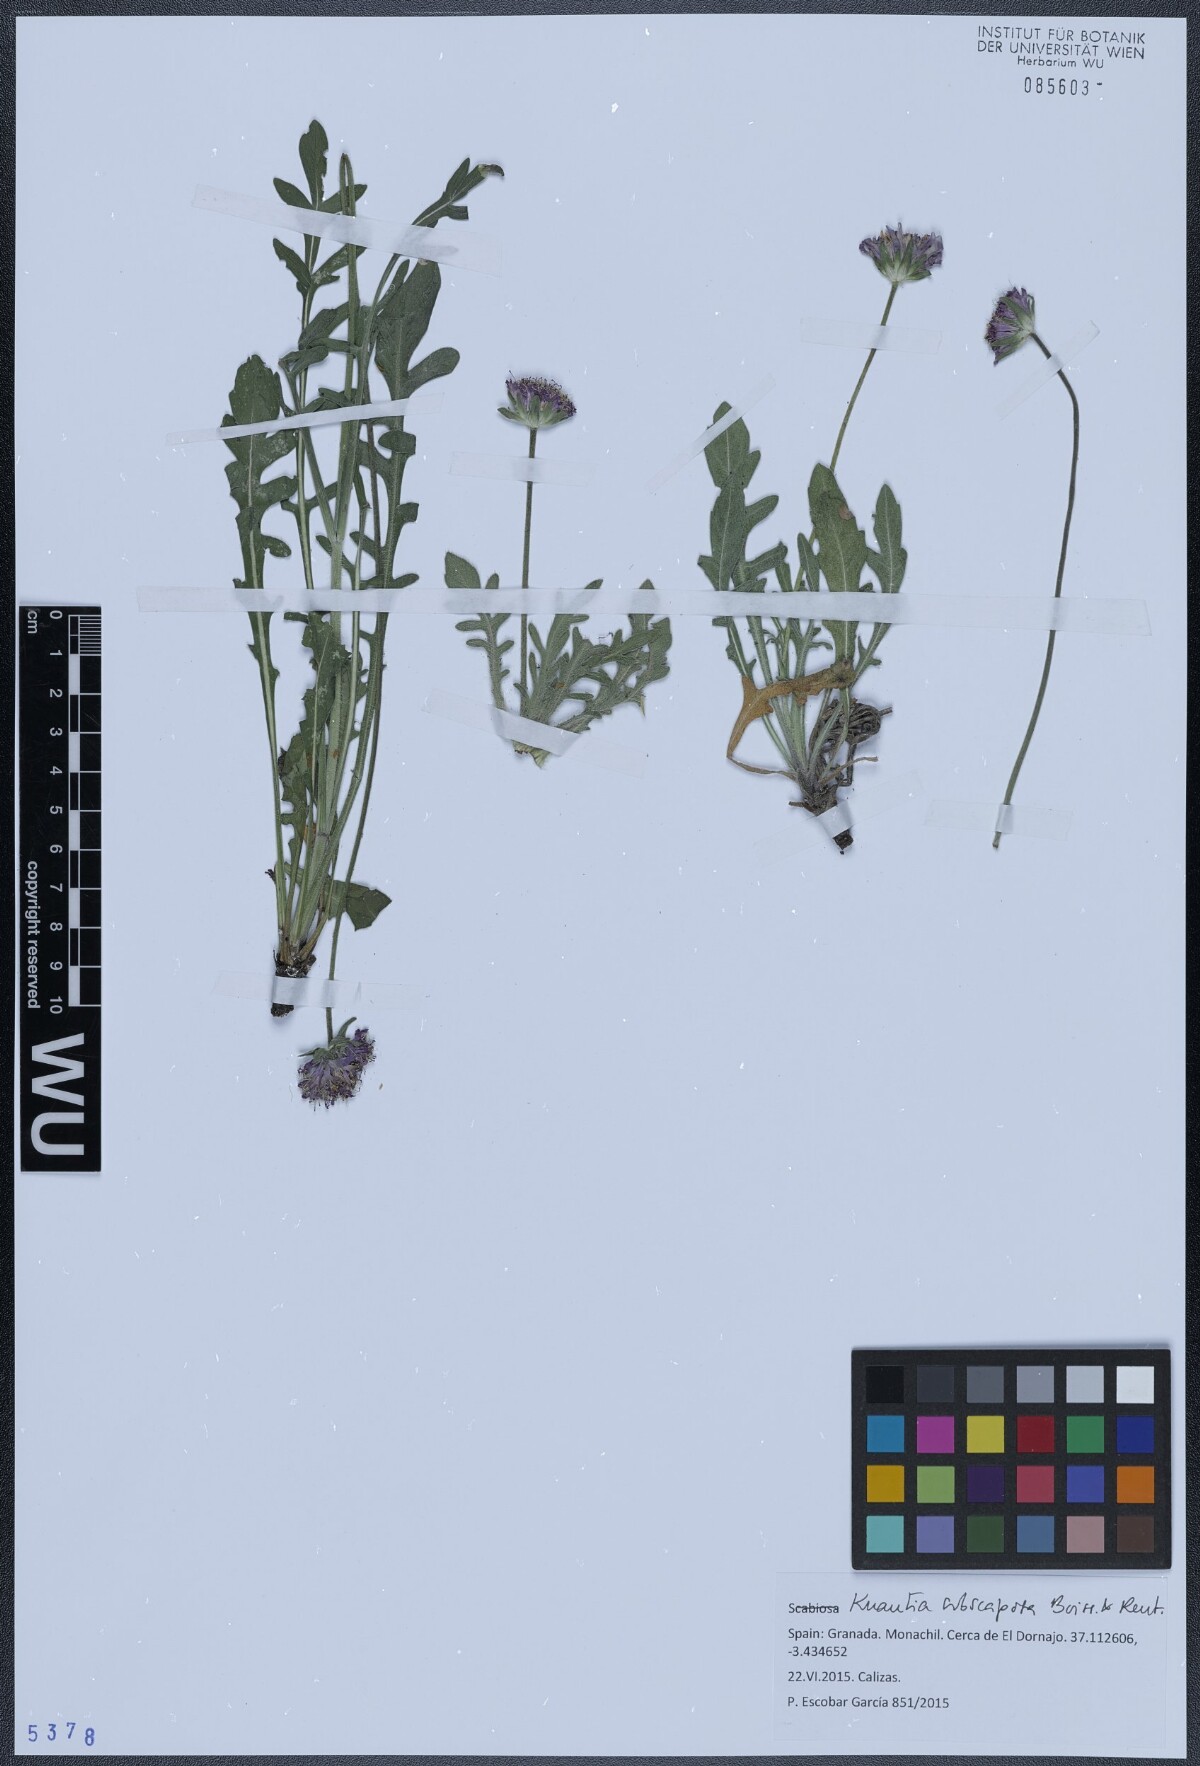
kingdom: Plantae
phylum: Tracheophyta
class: Magnoliopsida
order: Dipsacales
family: Caprifoliaceae
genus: Knautia
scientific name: Knautia subscaposa
